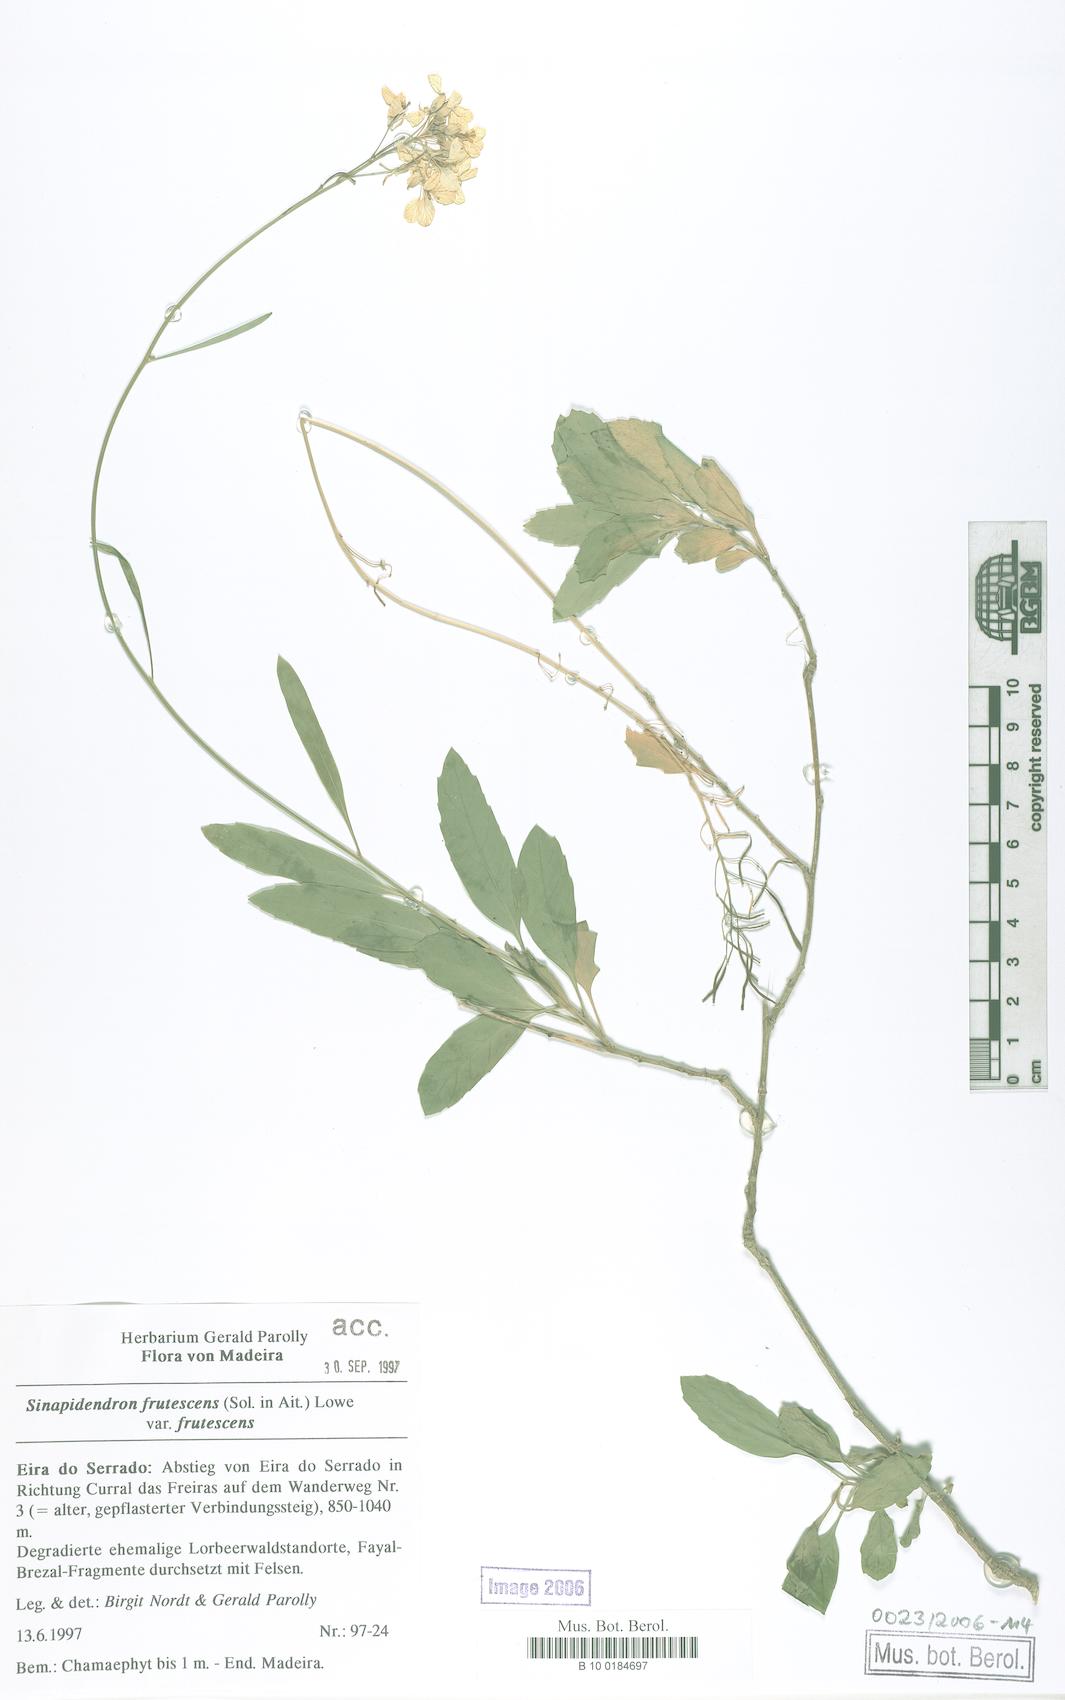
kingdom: Plantae
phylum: Tracheophyta
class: Magnoliopsida
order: Brassicales
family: Brassicaceae
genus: Sinapidendron
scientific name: Sinapidendron frutescens
